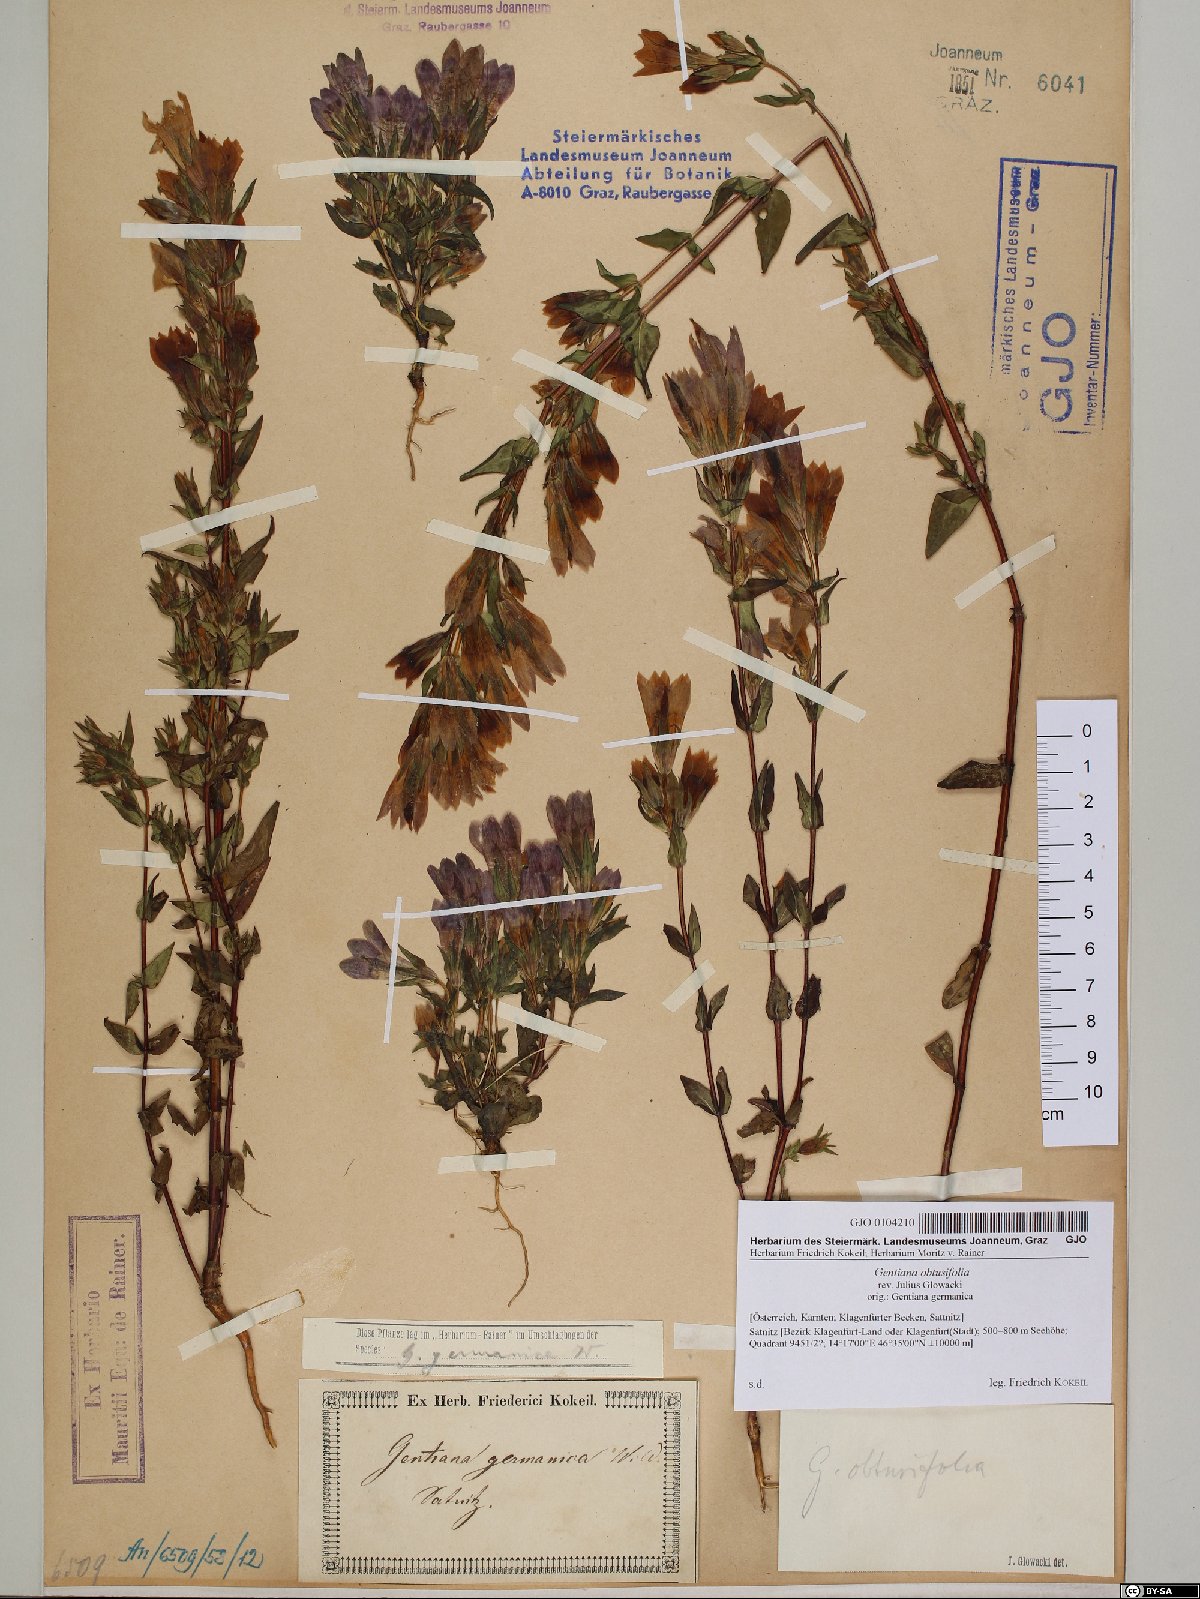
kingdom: Plantae
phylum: Tracheophyta
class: Magnoliopsida
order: Gentianales
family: Gentianaceae
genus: Gentianella
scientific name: Gentianella obtusifolia
